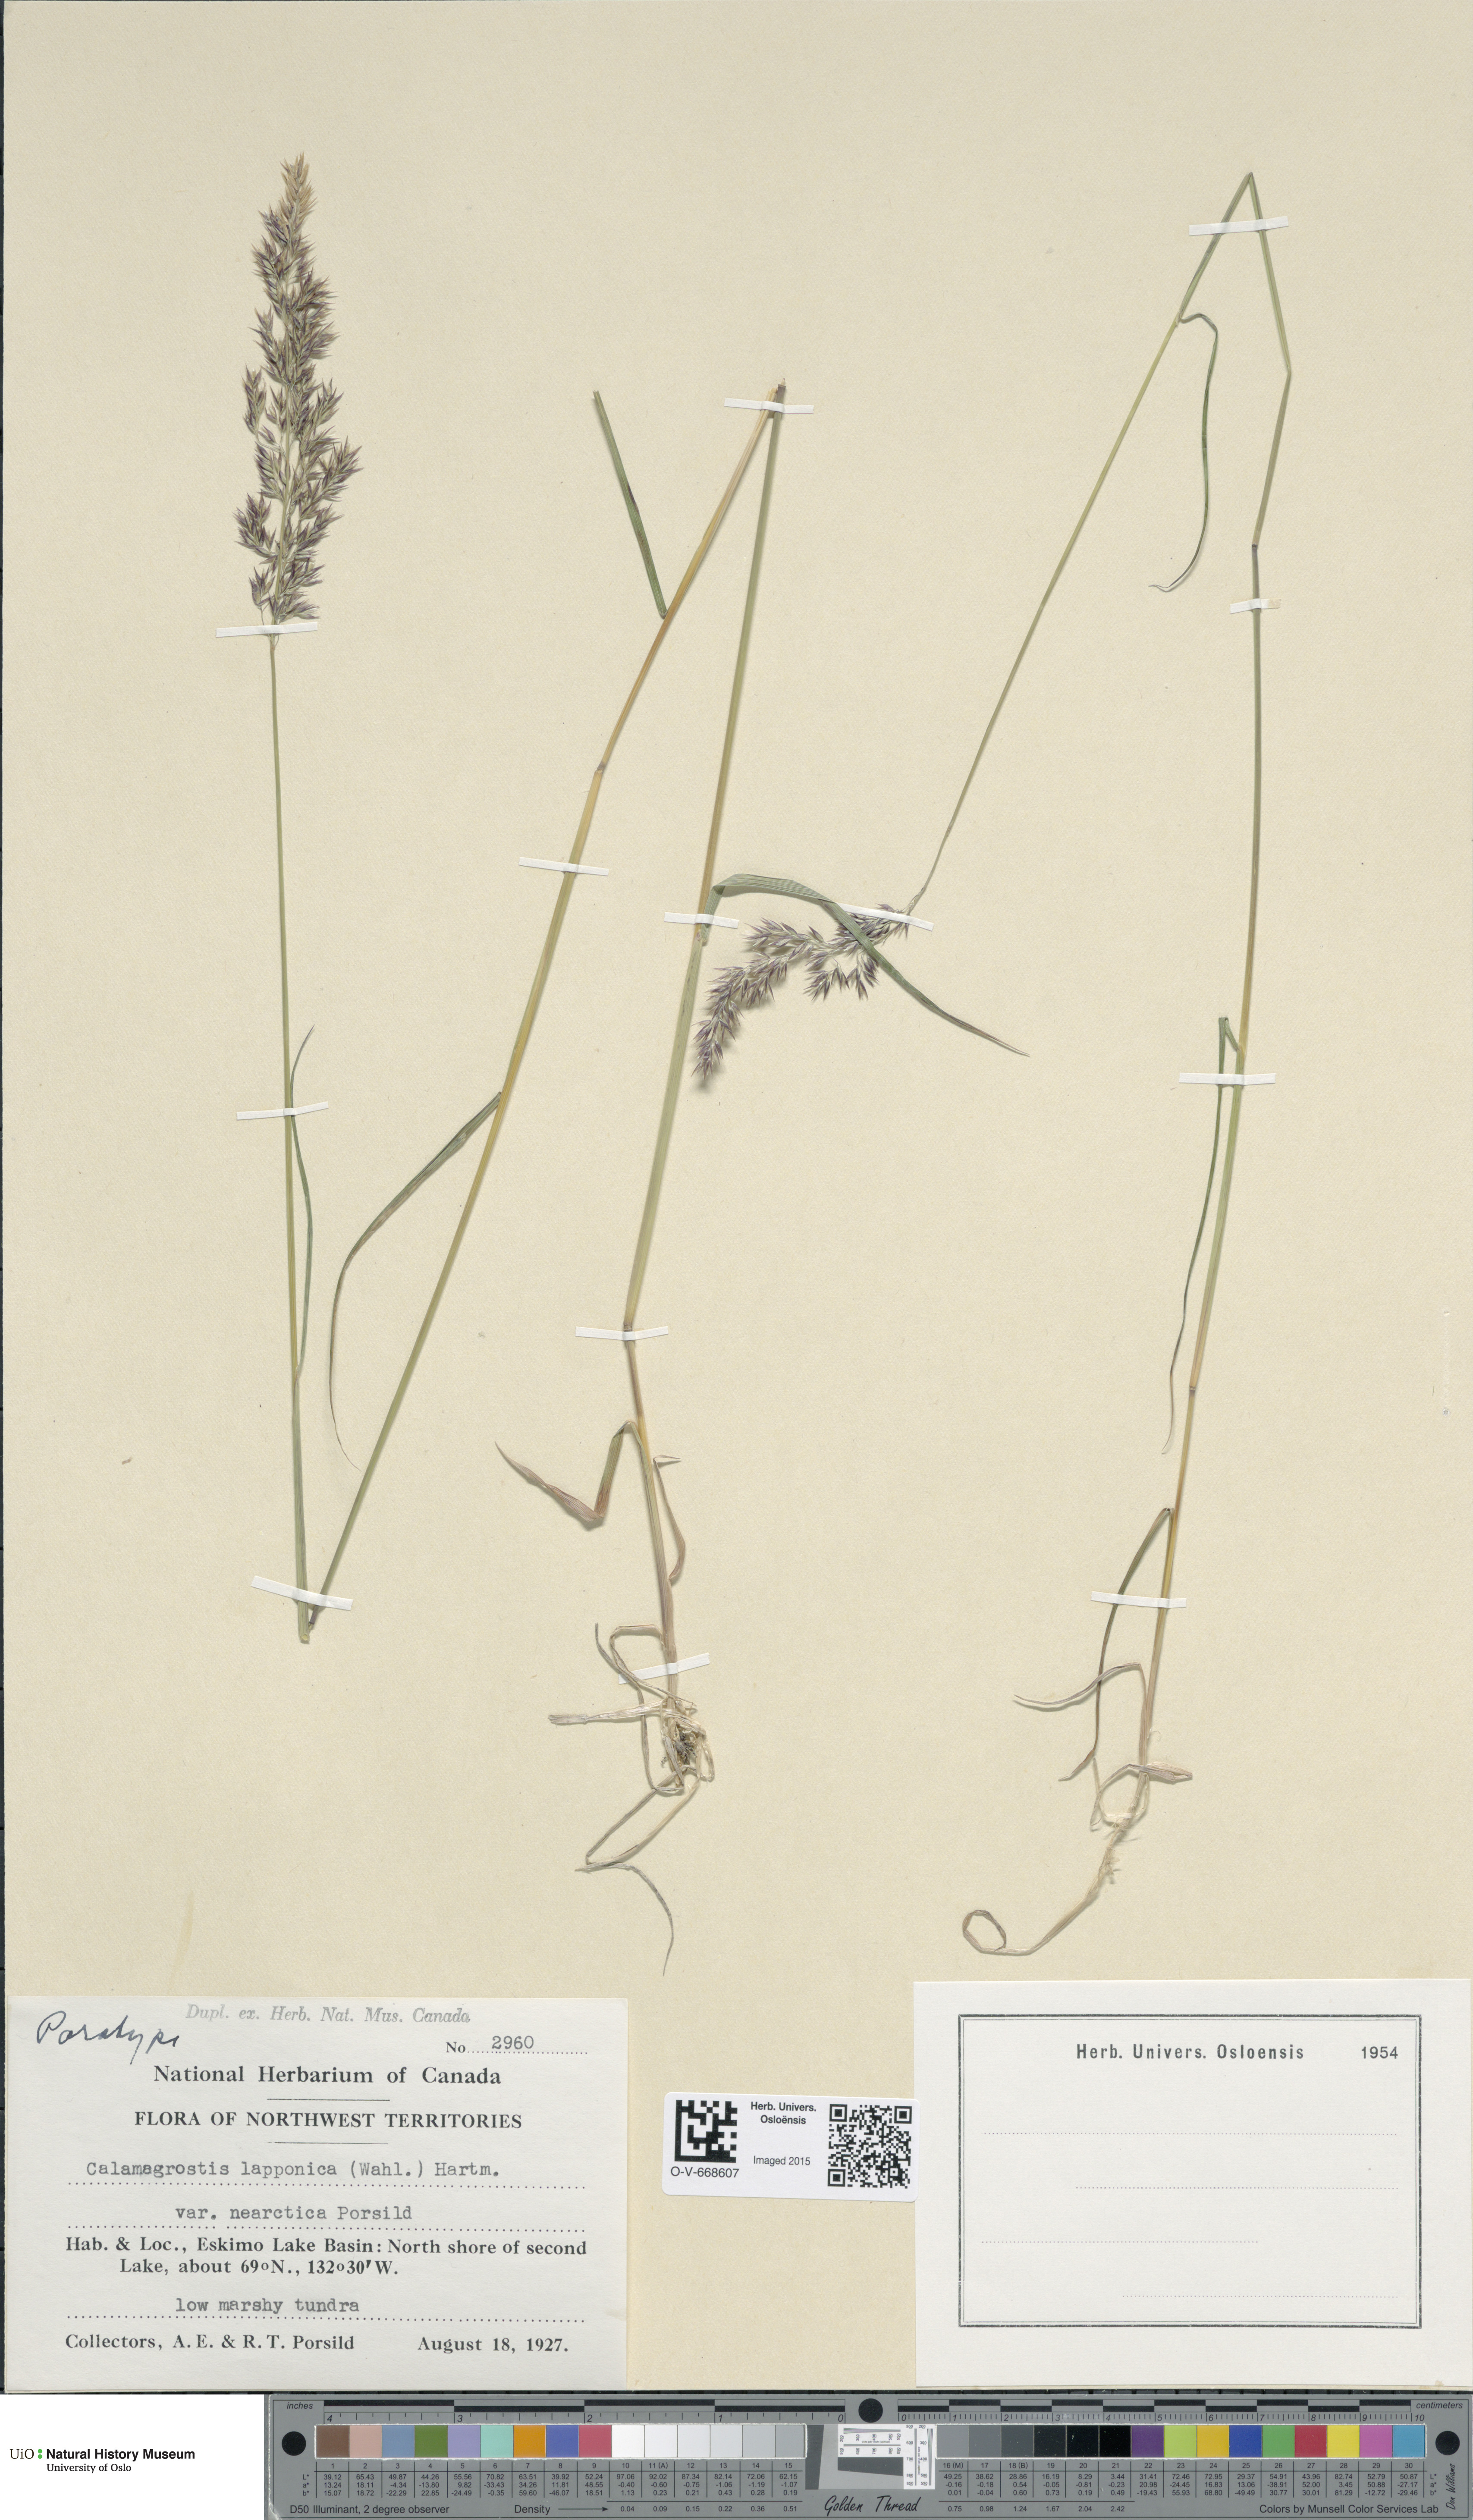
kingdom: Plantae
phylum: Tracheophyta
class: Liliopsida
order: Poales
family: Poaceae
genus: Calamagrostis
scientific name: Calamagrostis lapponica
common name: Lapland reedgrass
